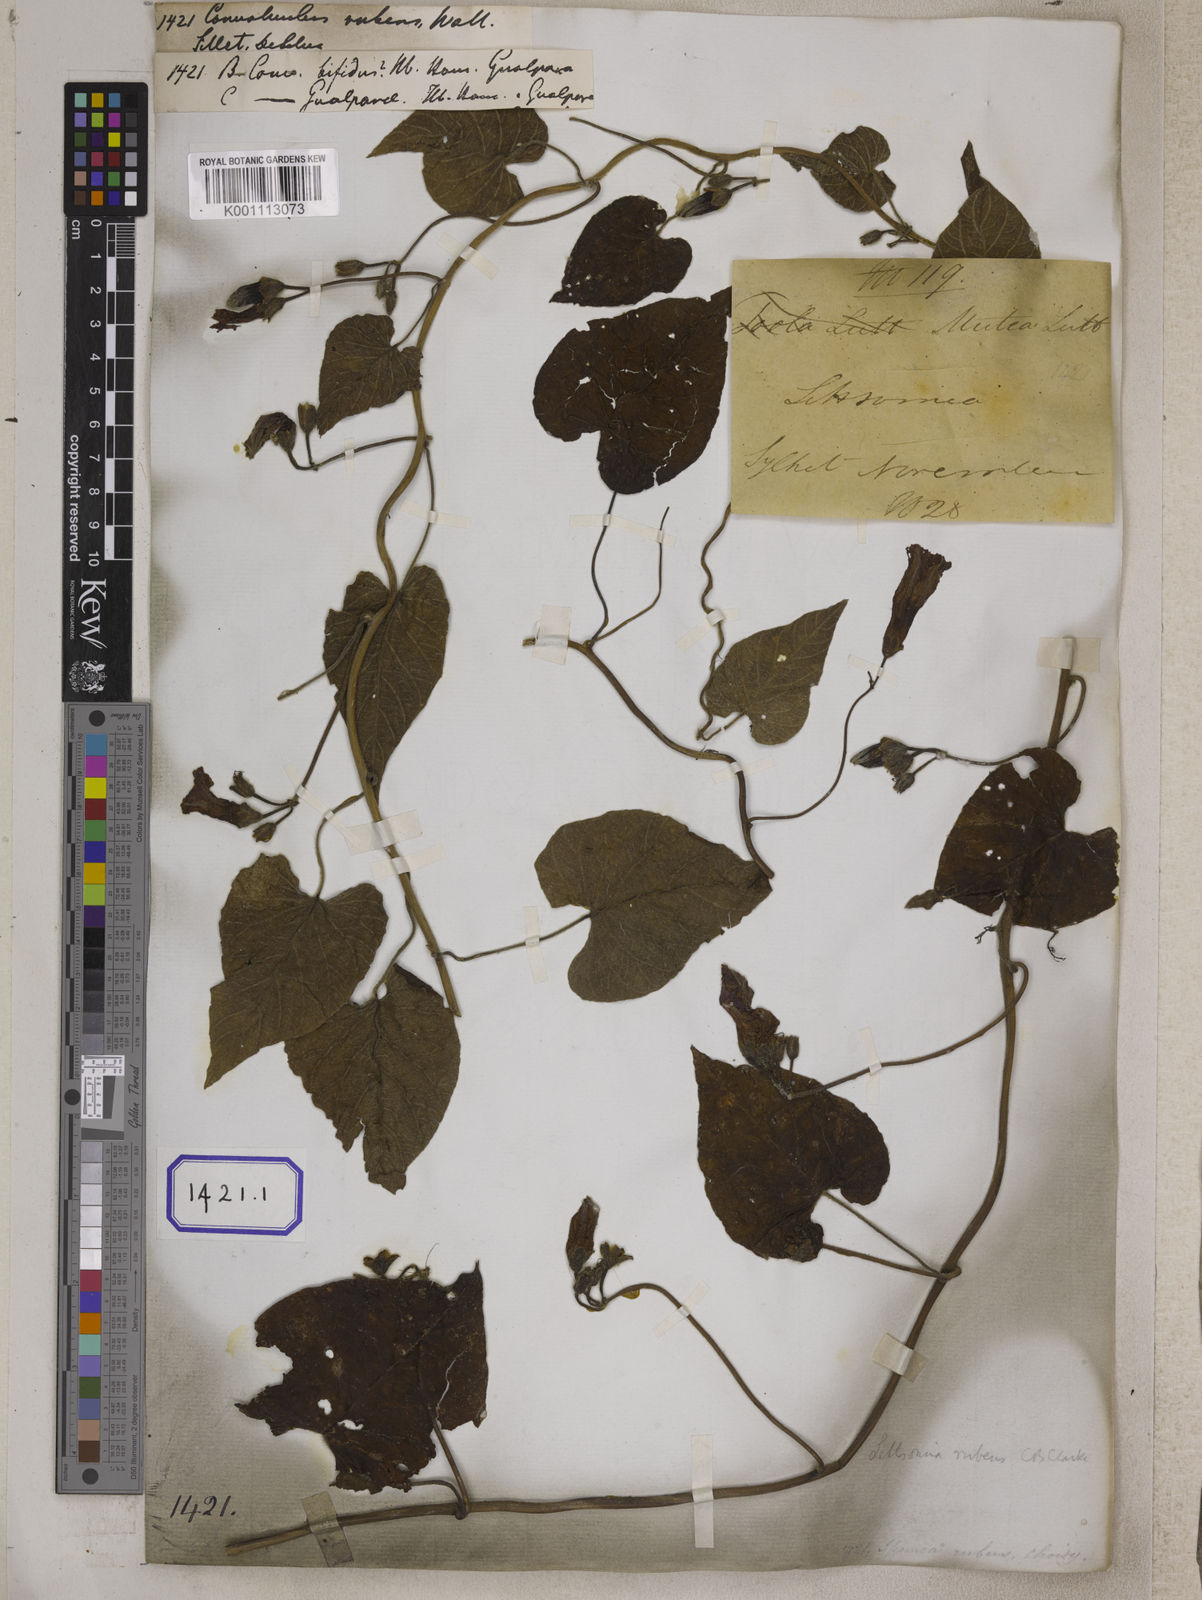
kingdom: Plantae
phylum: Tracheophyta
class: Magnoliopsida
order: Solanales
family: Convolvulaceae
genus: Ipomoea
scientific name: Ipomoea rubens
